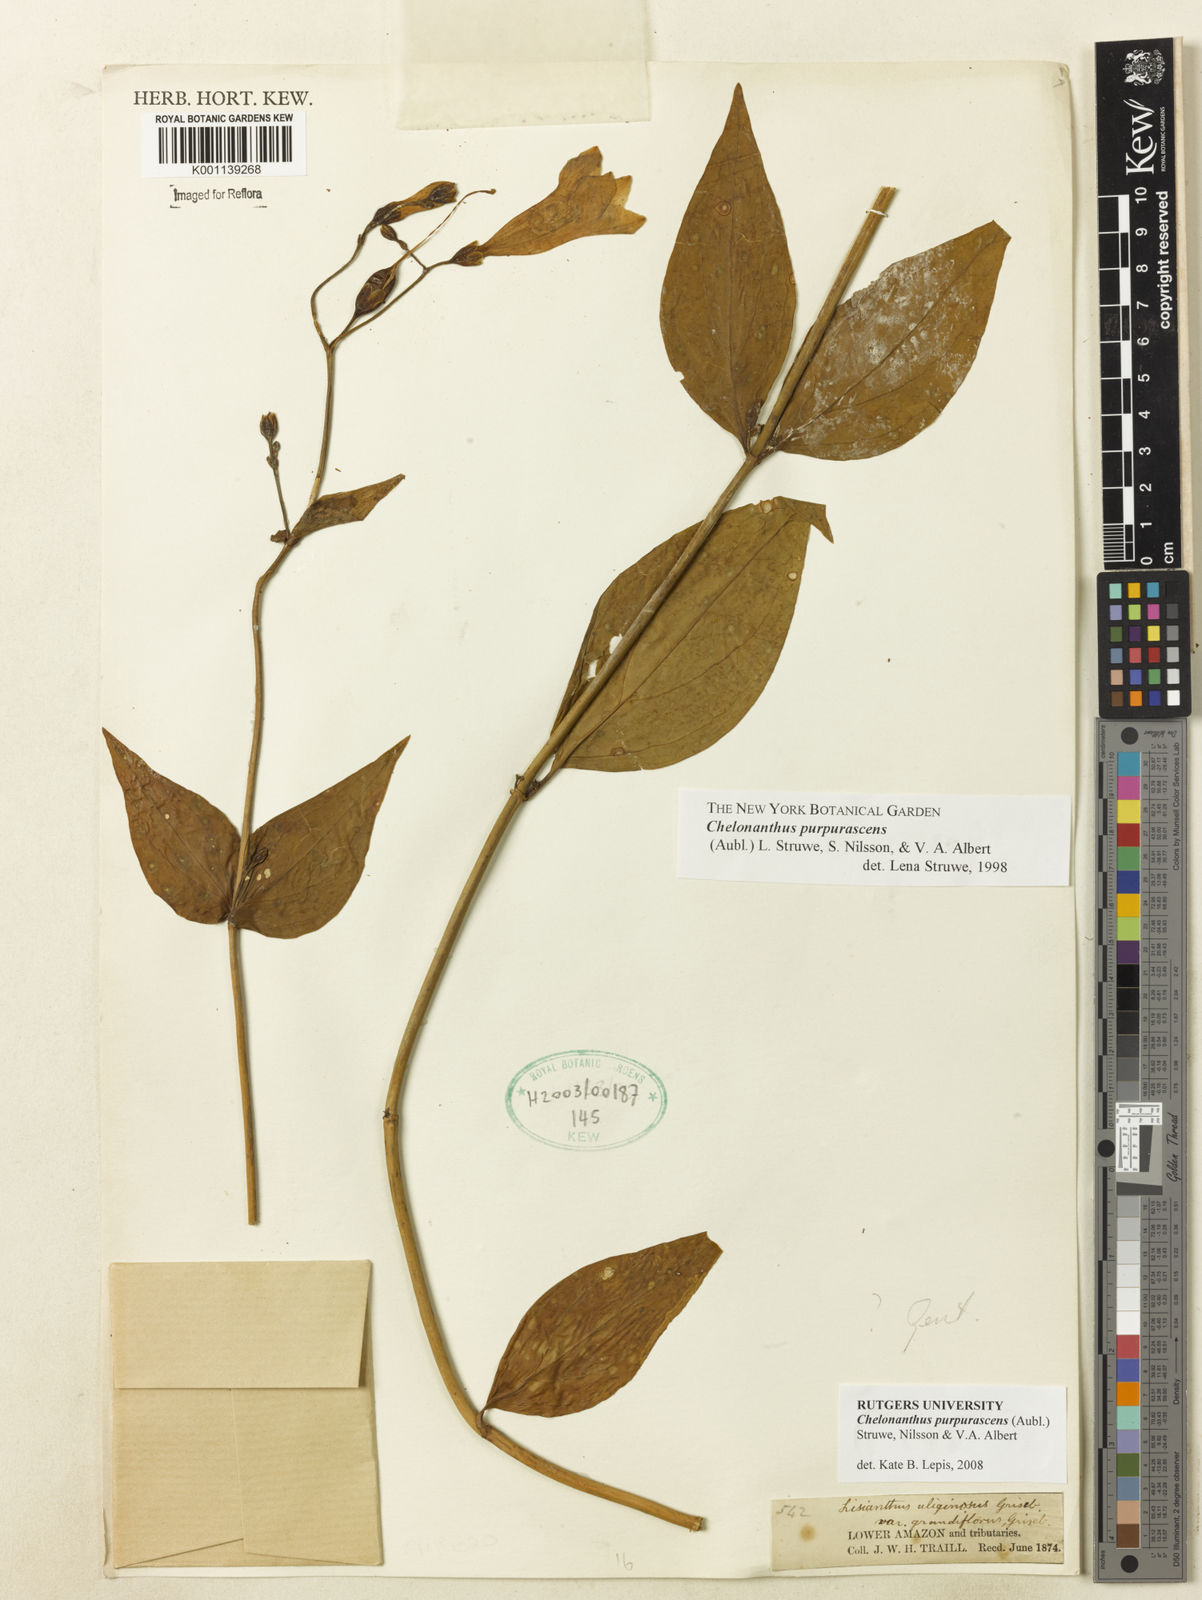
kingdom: Plantae
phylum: Tracheophyta
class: Magnoliopsida
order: Gentianales
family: Gentianaceae
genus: Chelonanthus
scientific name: Chelonanthus purpurascens
